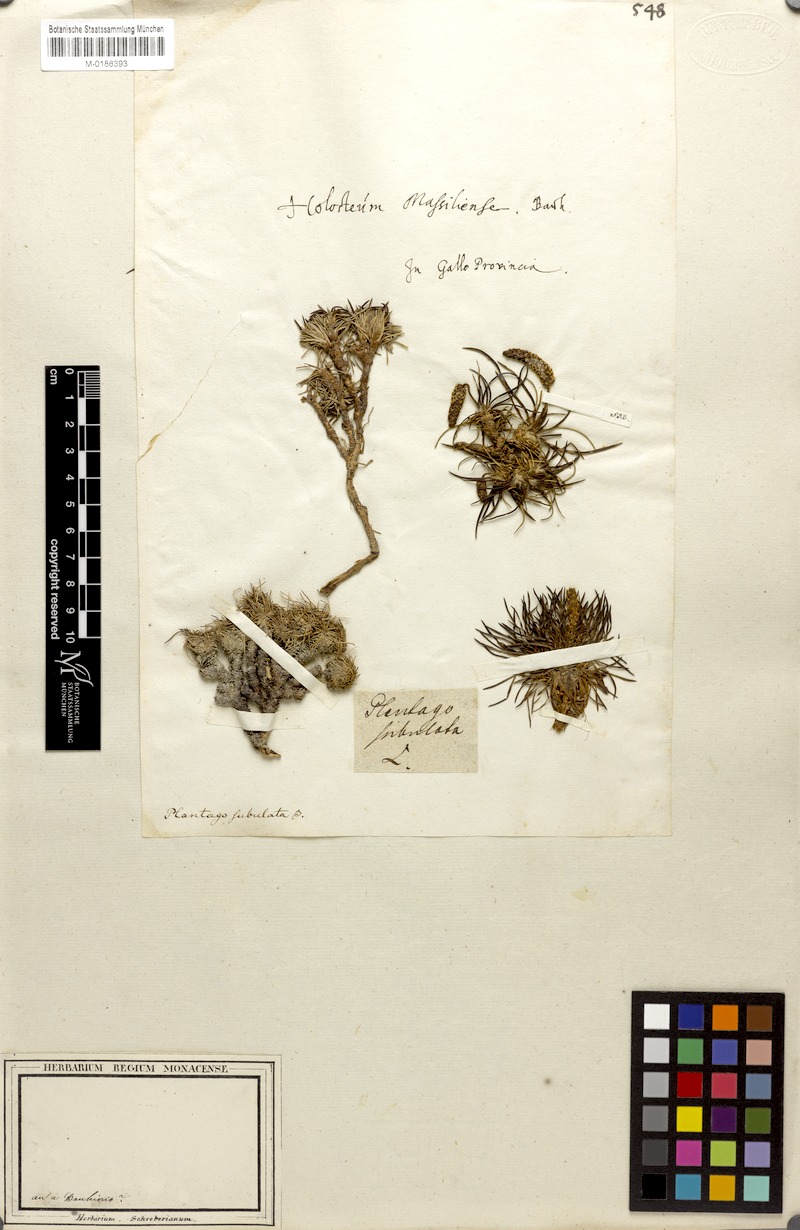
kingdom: Plantae
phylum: Tracheophyta
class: Magnoliopsida
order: Lamiales
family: Plantaginaceae
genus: Plantago
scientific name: Plantago subulata
